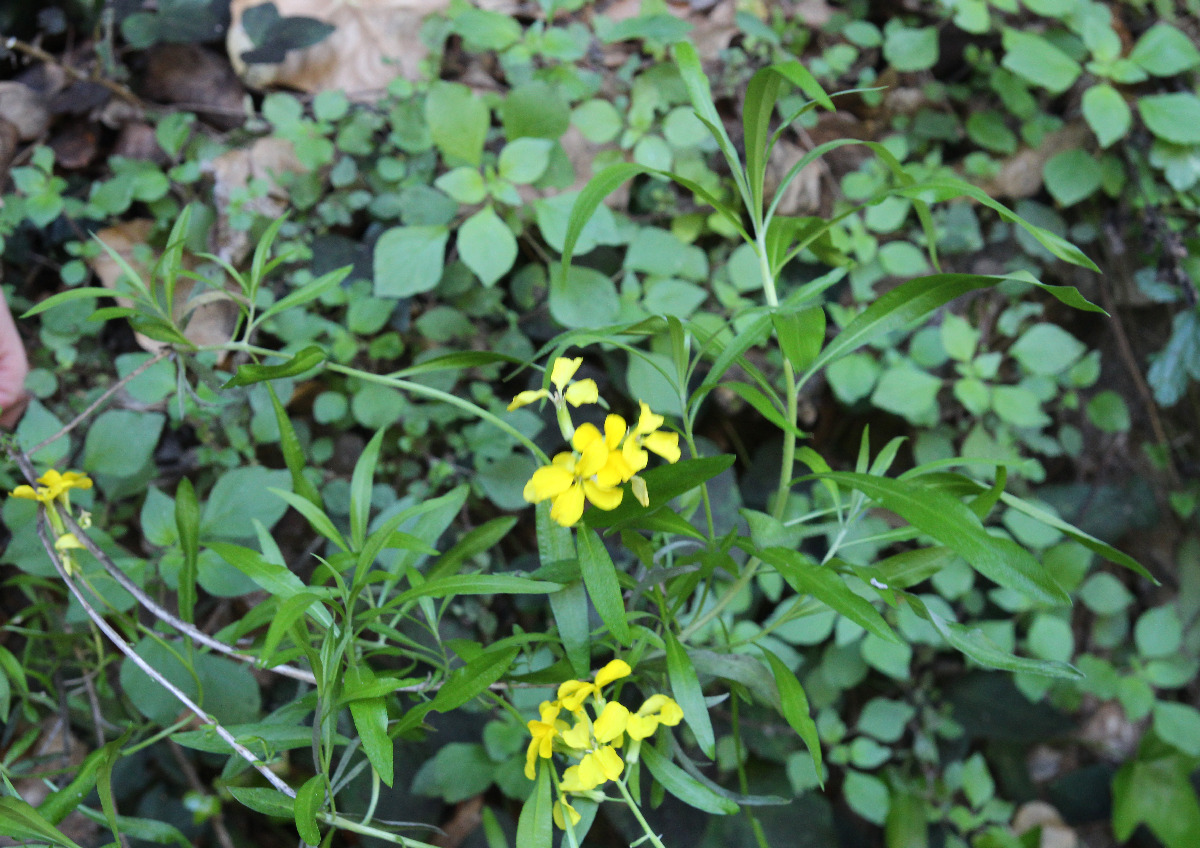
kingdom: Plantae
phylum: Tracheophyta
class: Magnoliopsida
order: Brassicales
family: Brassicaceae
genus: Erysimum
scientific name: Erysimum corinthium
